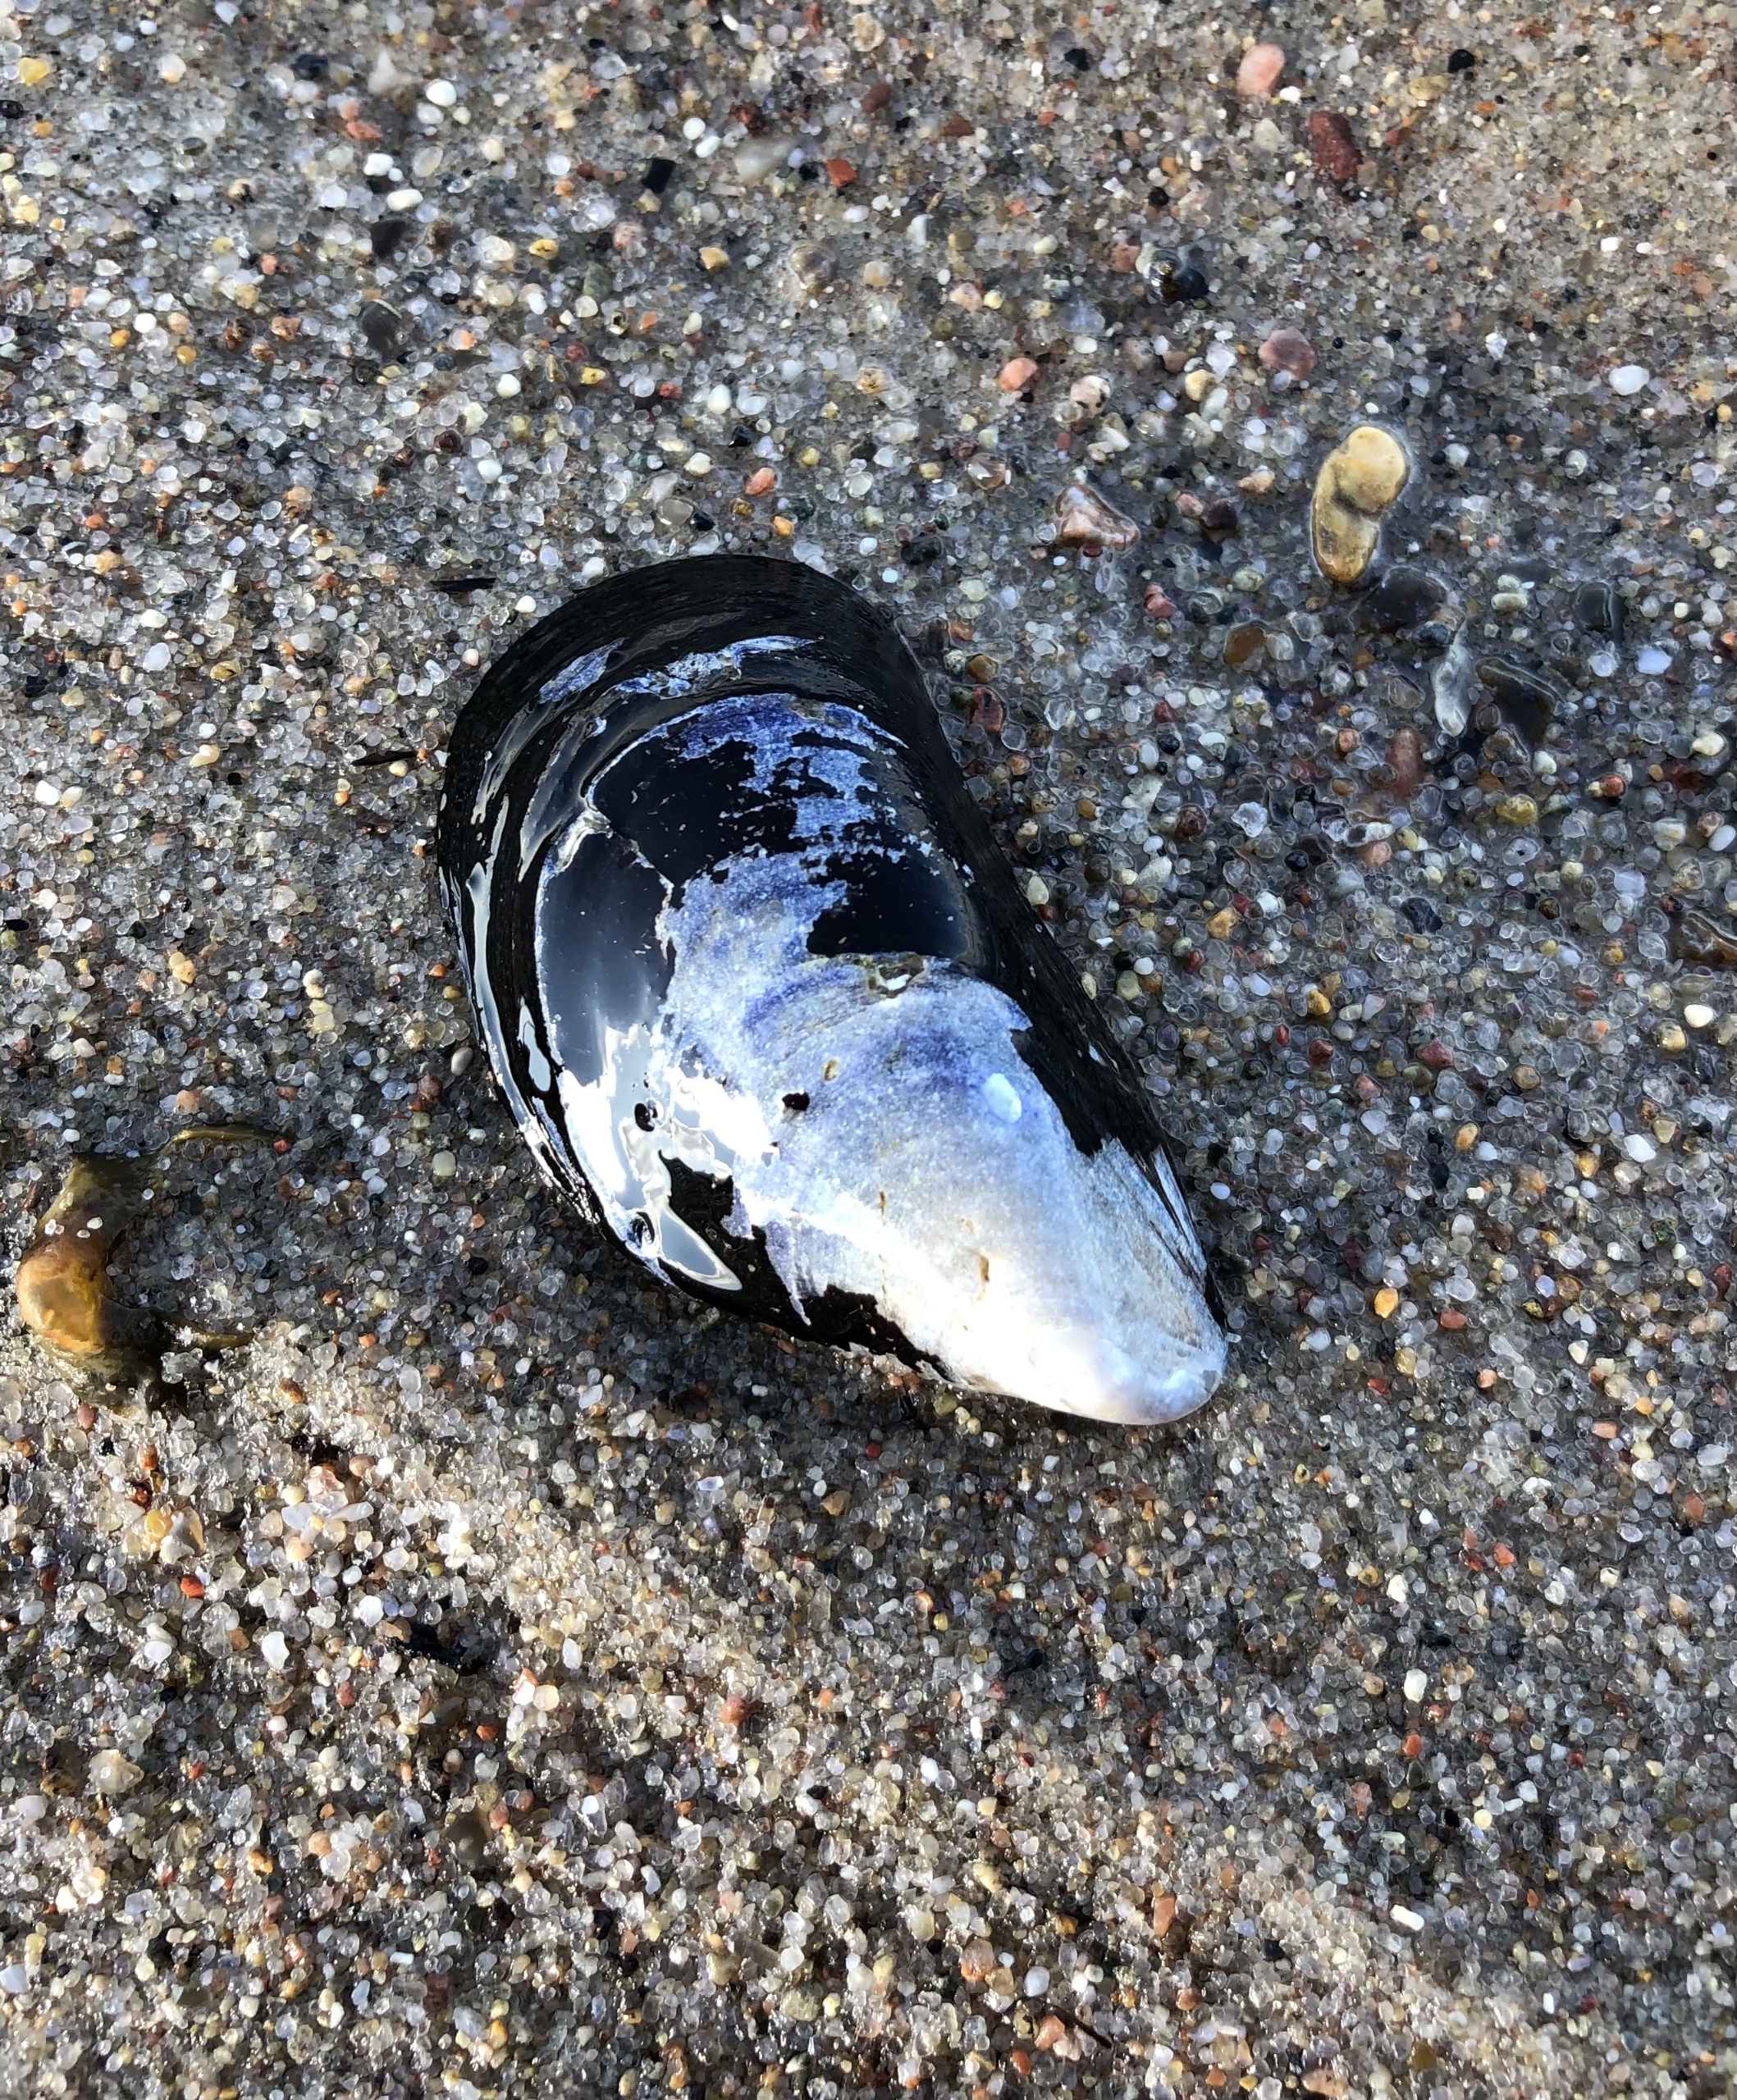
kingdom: Animalia
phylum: Mollusca
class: Bivalvia
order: Mytilida
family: Mytilidae
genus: Mytilus
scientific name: Mytilus edulis
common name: Blåmusling
